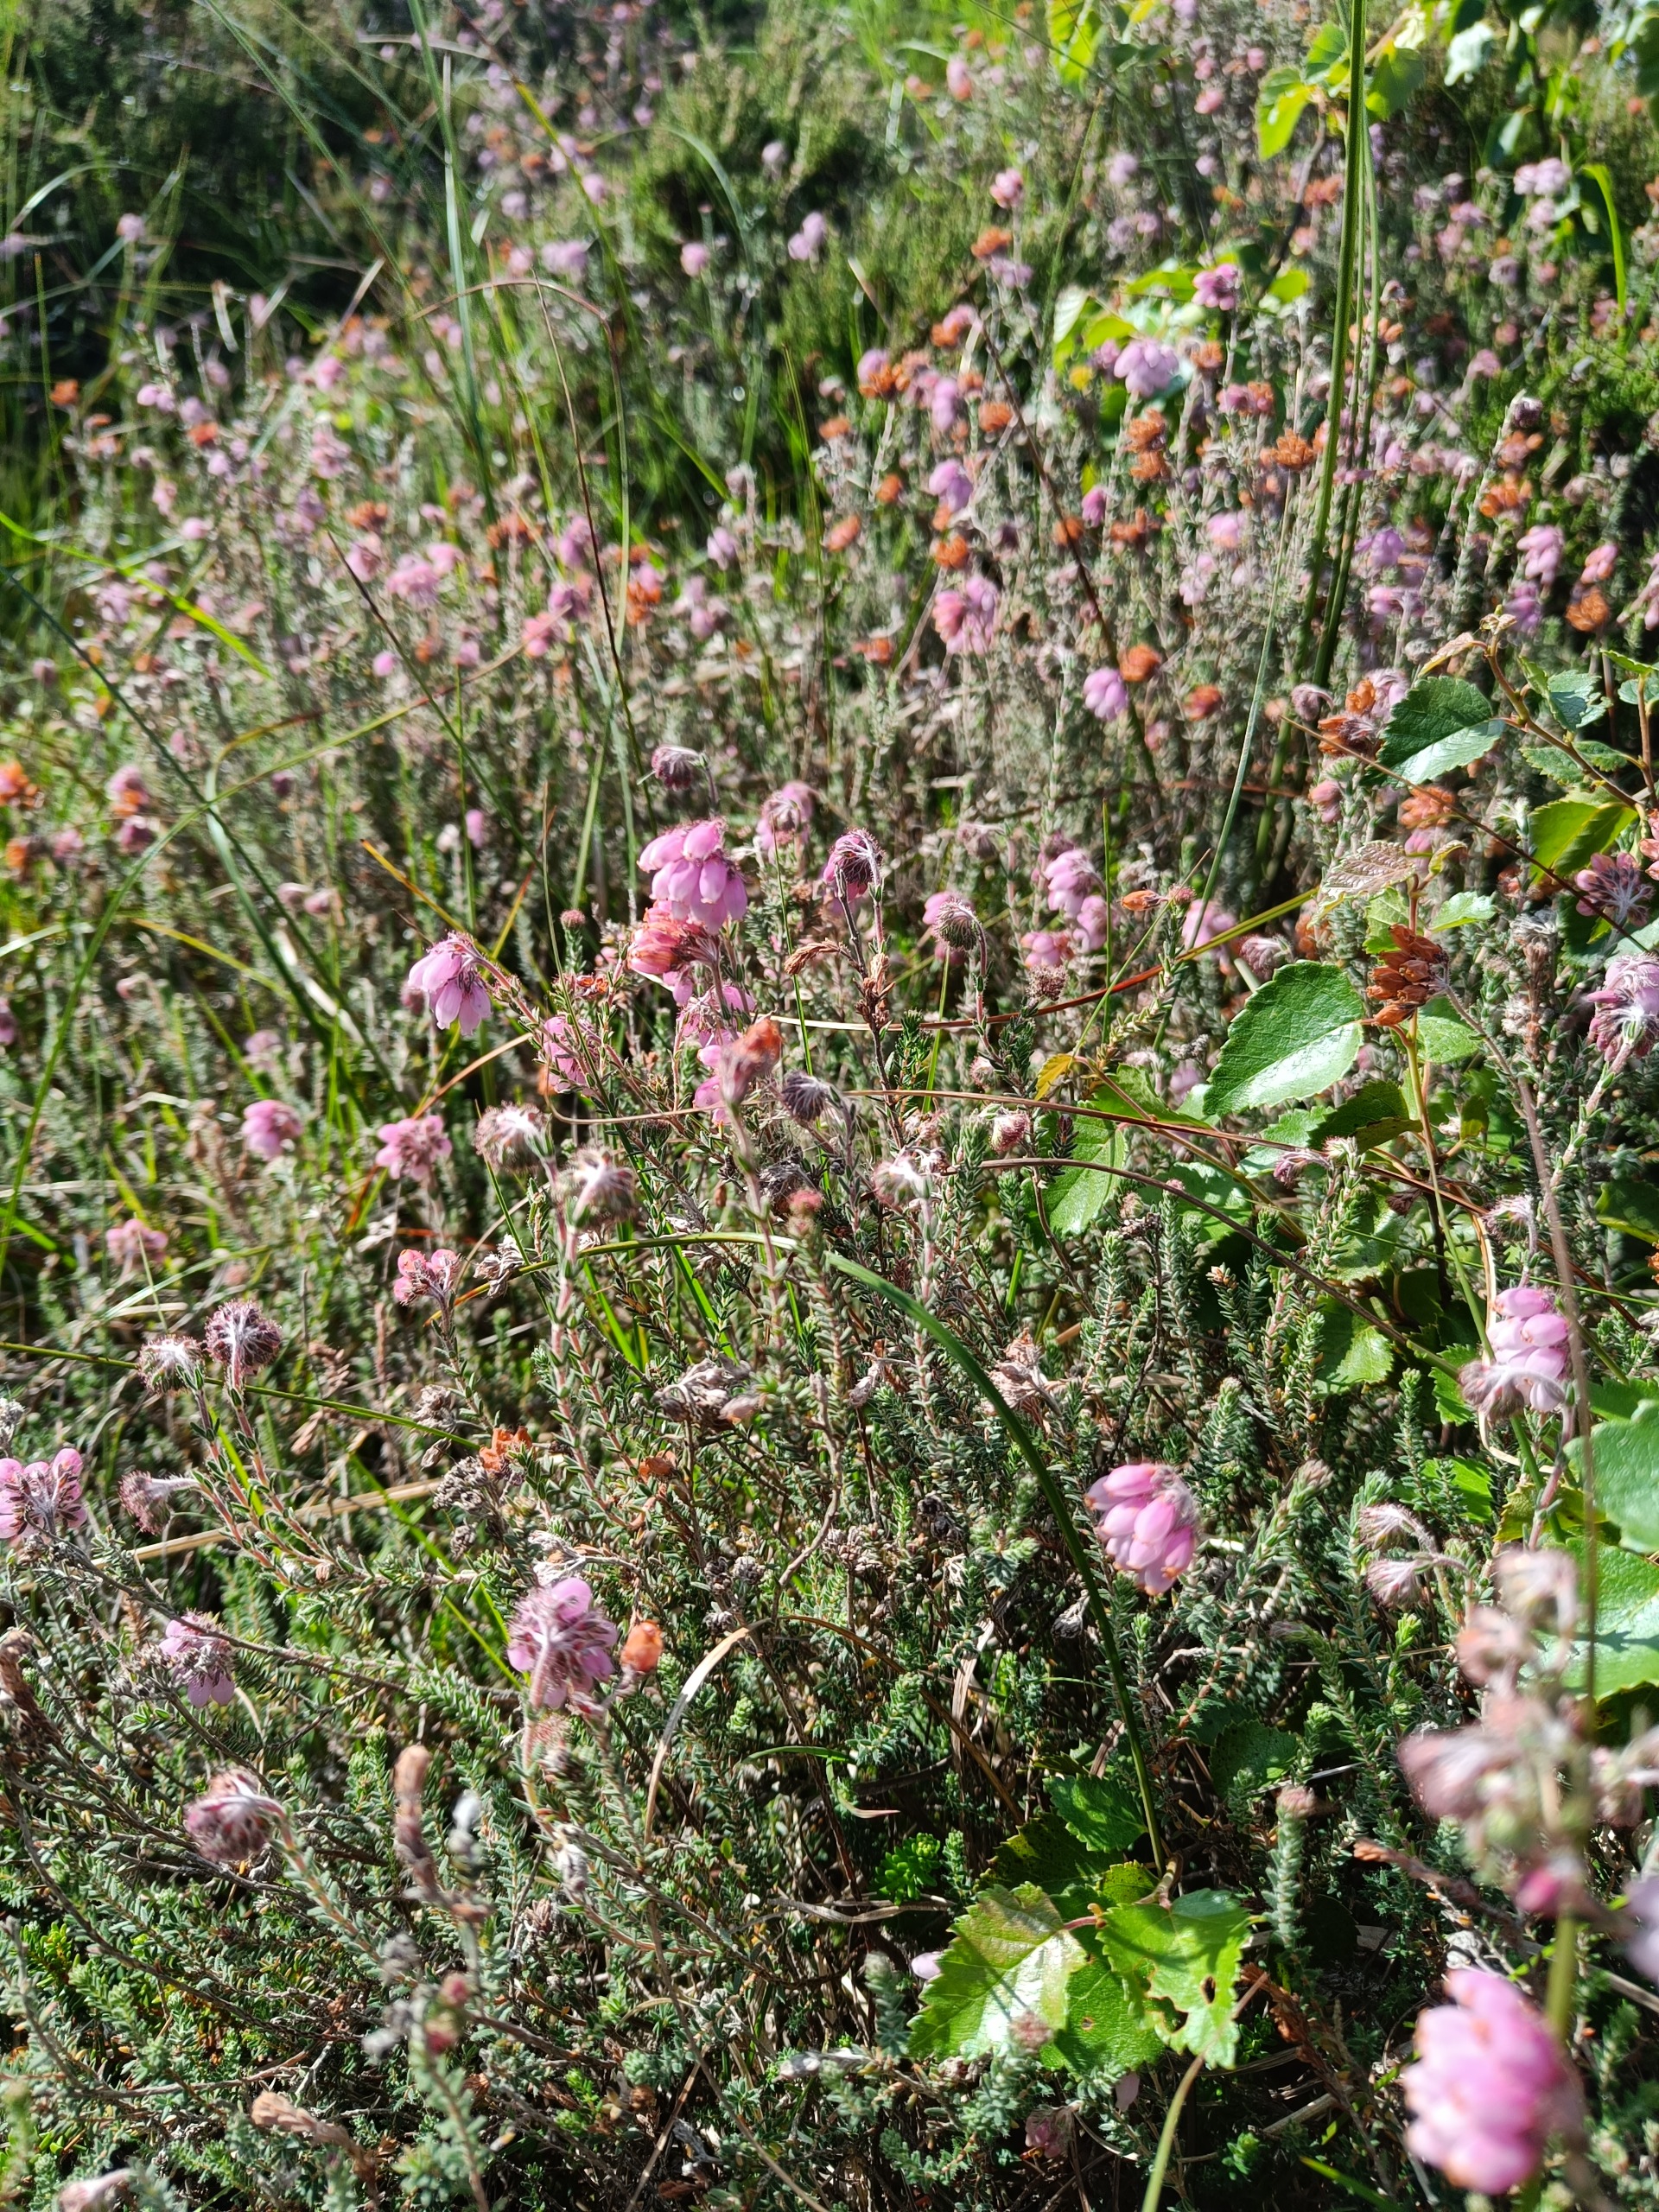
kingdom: Plantae
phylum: Tracheophyta
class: Magnoliopsida
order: Ericales
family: Ericaceae
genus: Erica
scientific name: Erica tetralix
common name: Klokkelyng
